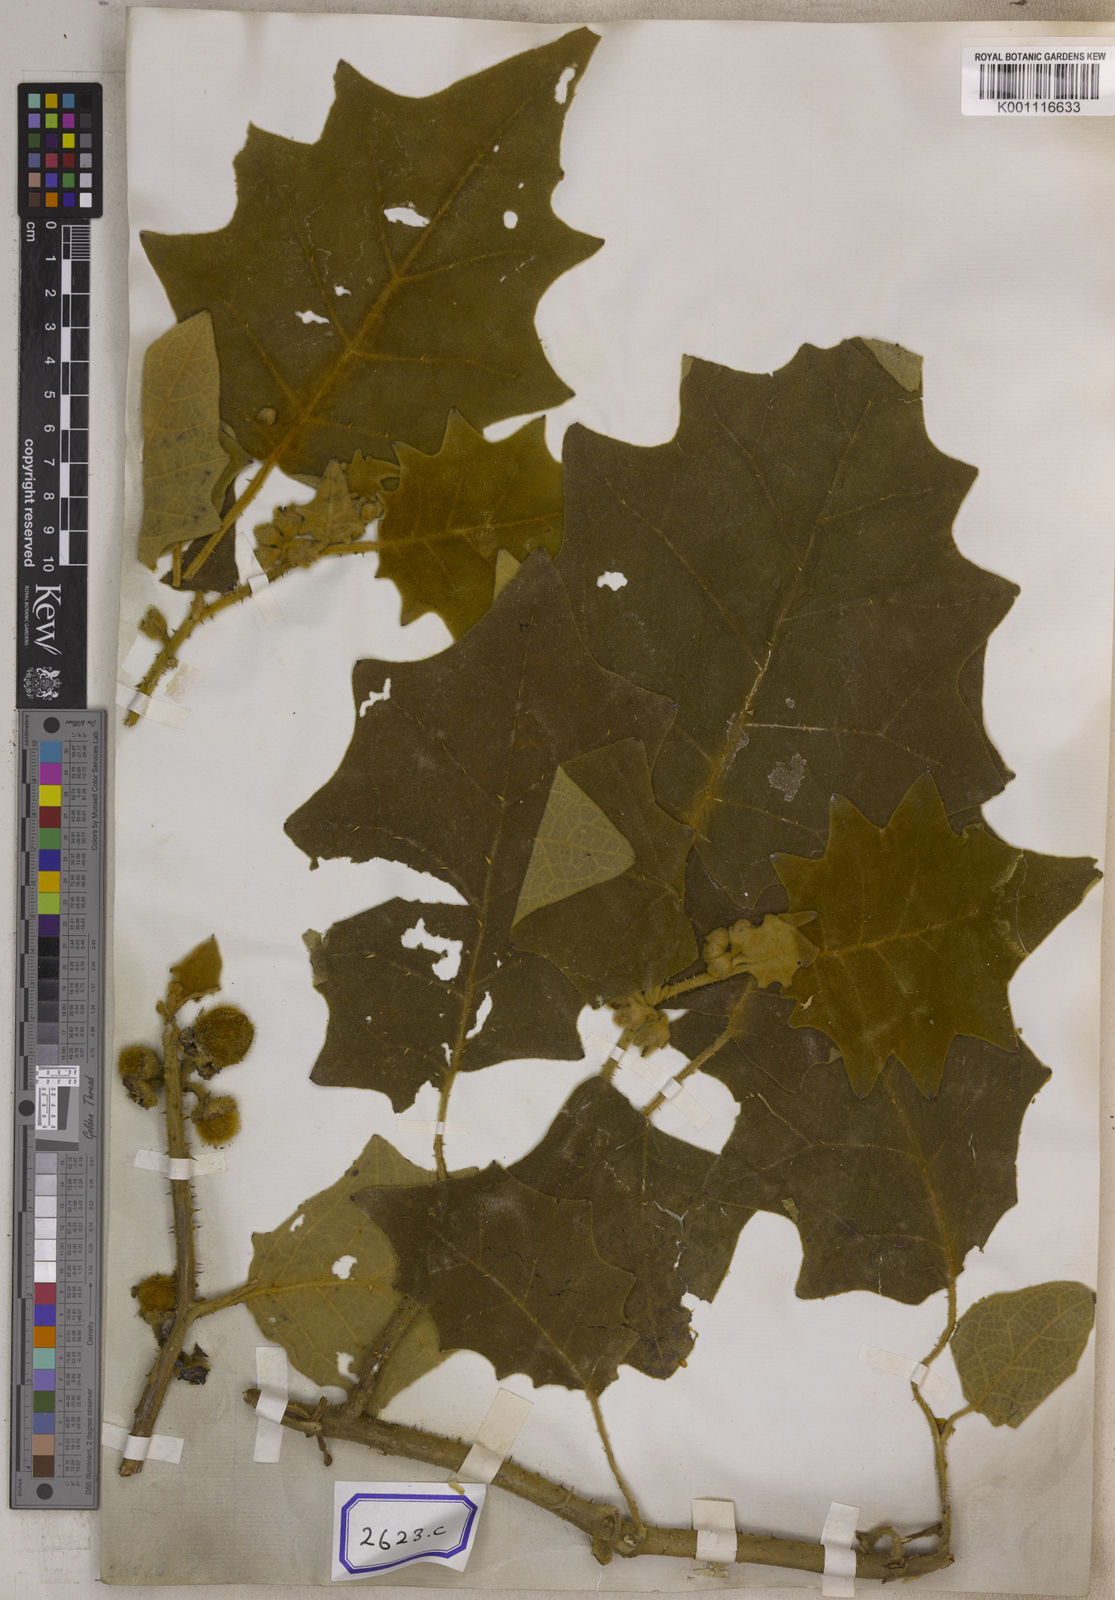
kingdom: Plantae
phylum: Tracheophyta
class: Magnoliopsida
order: Solanales
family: Solanaceae
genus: Solanum
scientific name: Solanum lasiocarpum
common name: Indian nightshade
